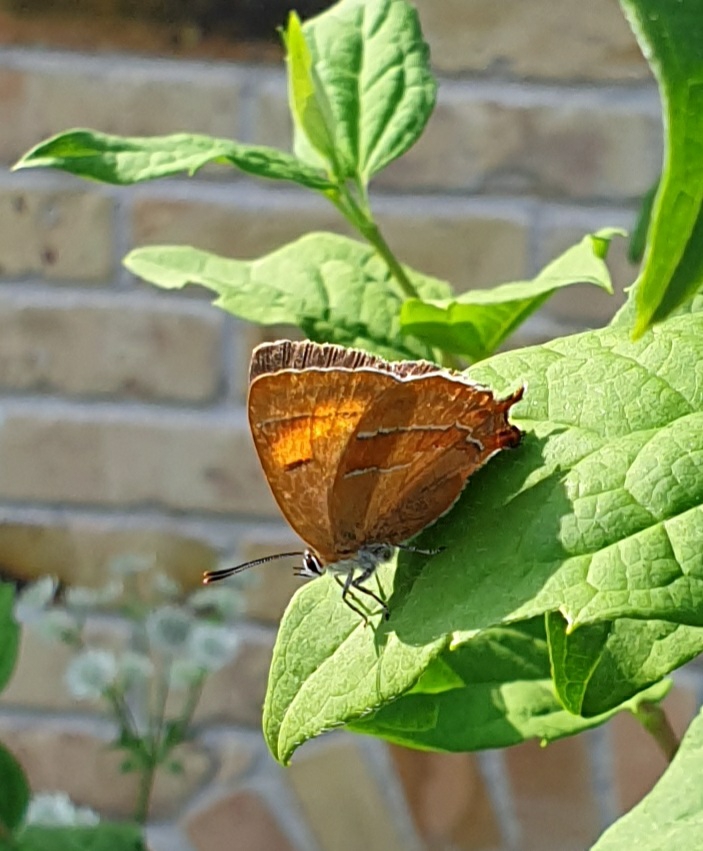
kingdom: Animalia
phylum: Arthropoda
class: Insecta
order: Lepidoptera
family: Lycaenidae
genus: Thecla
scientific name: Thecla betulae
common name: Guldhale
